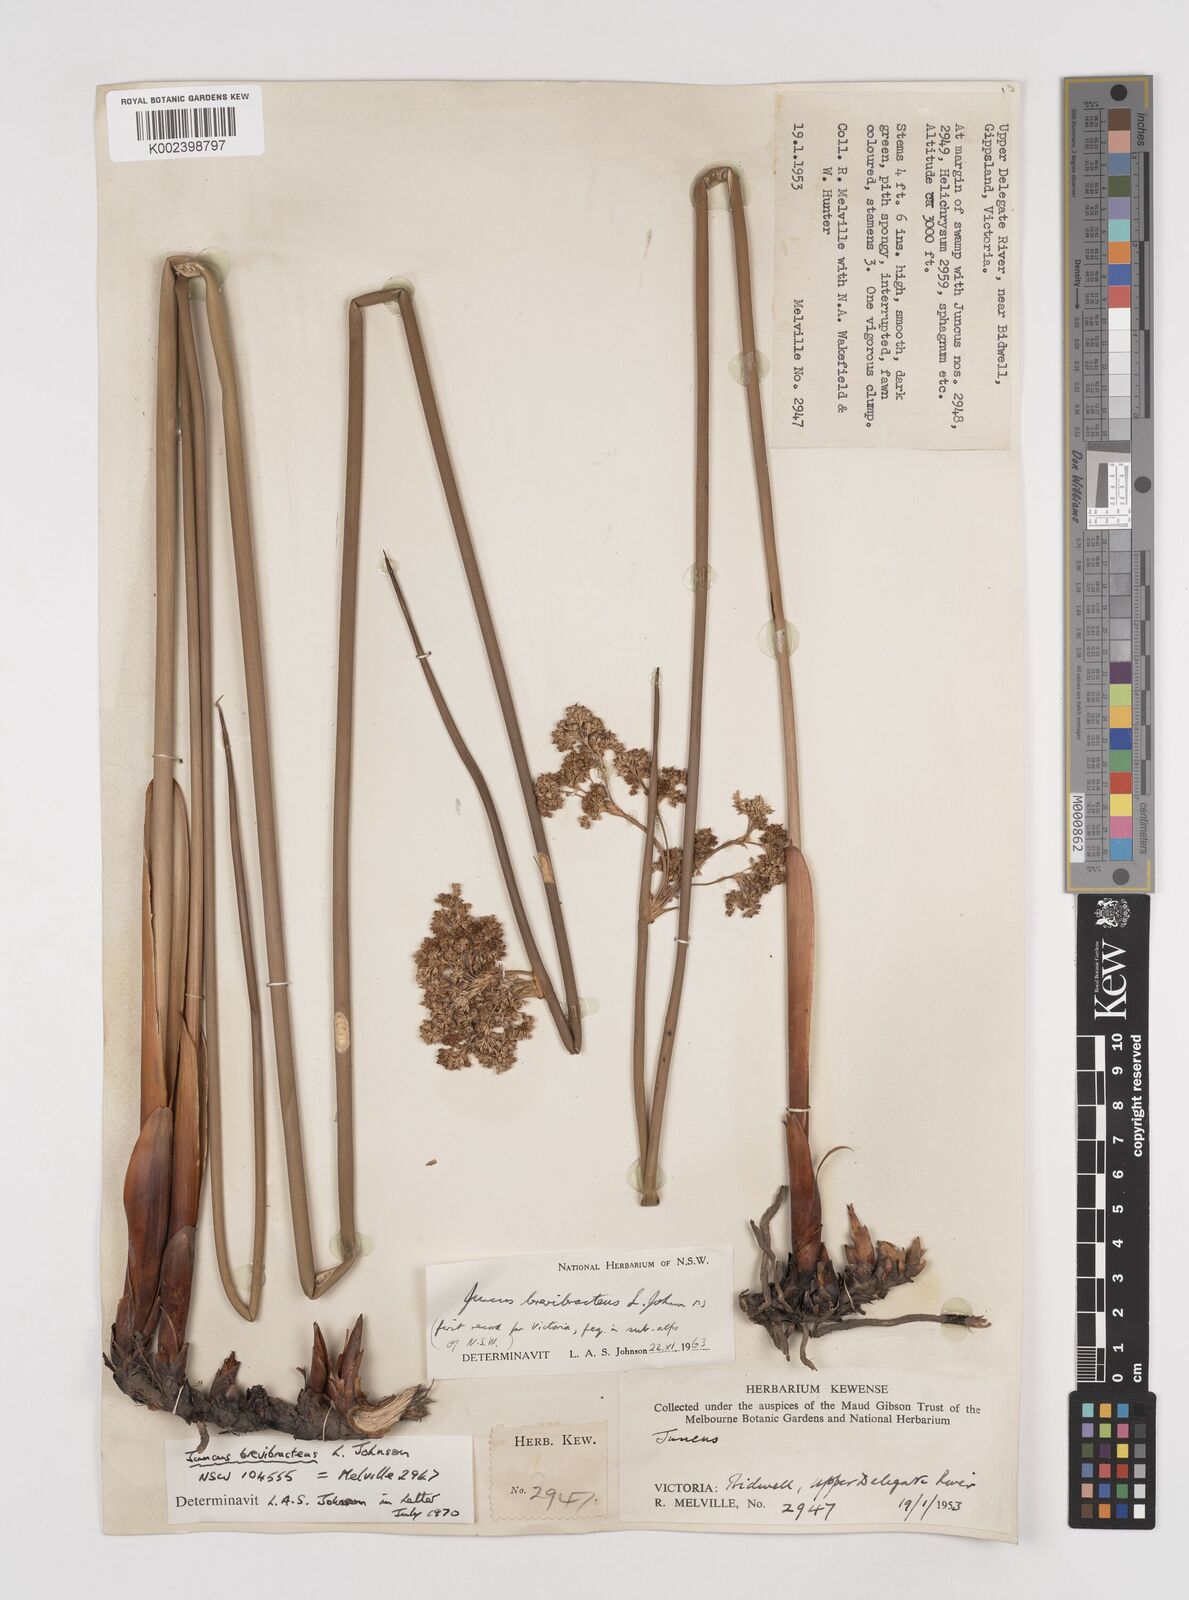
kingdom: Plantae
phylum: Tracheophyta
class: Liliopsida
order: Poales
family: Juncaceae
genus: Juncus
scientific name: Juncus brevibracteus
